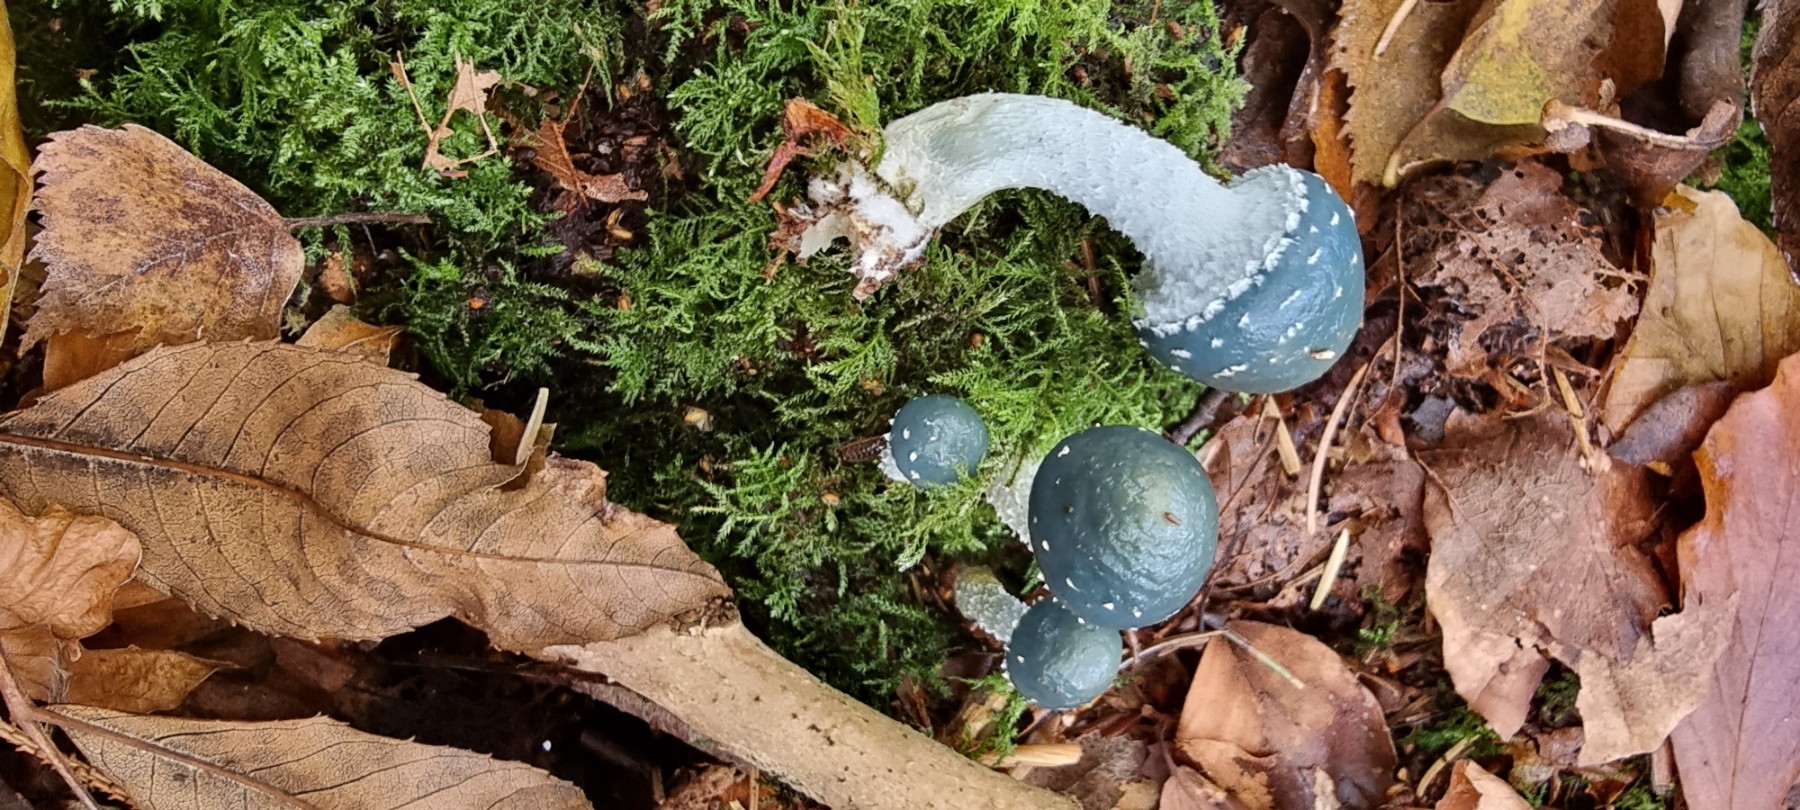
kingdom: Fungi
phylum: Basidiomycota
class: Agaricomycetes
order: Agaricales
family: Strophariaceae
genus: Stropharia
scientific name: Stropharia aeruginosa
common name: spanskgrøn bredblad
